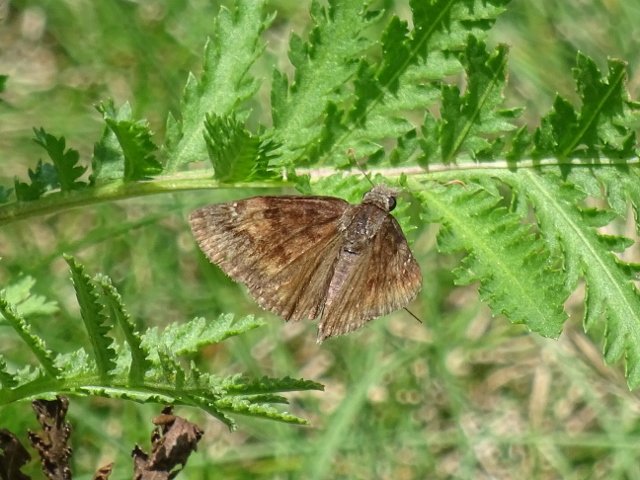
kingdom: Animalia
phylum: Arthropoda
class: Insecta
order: Lepidoptera
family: Hesperiidae
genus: Gesta
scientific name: Gesta
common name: Wild Indigo Duskywing
